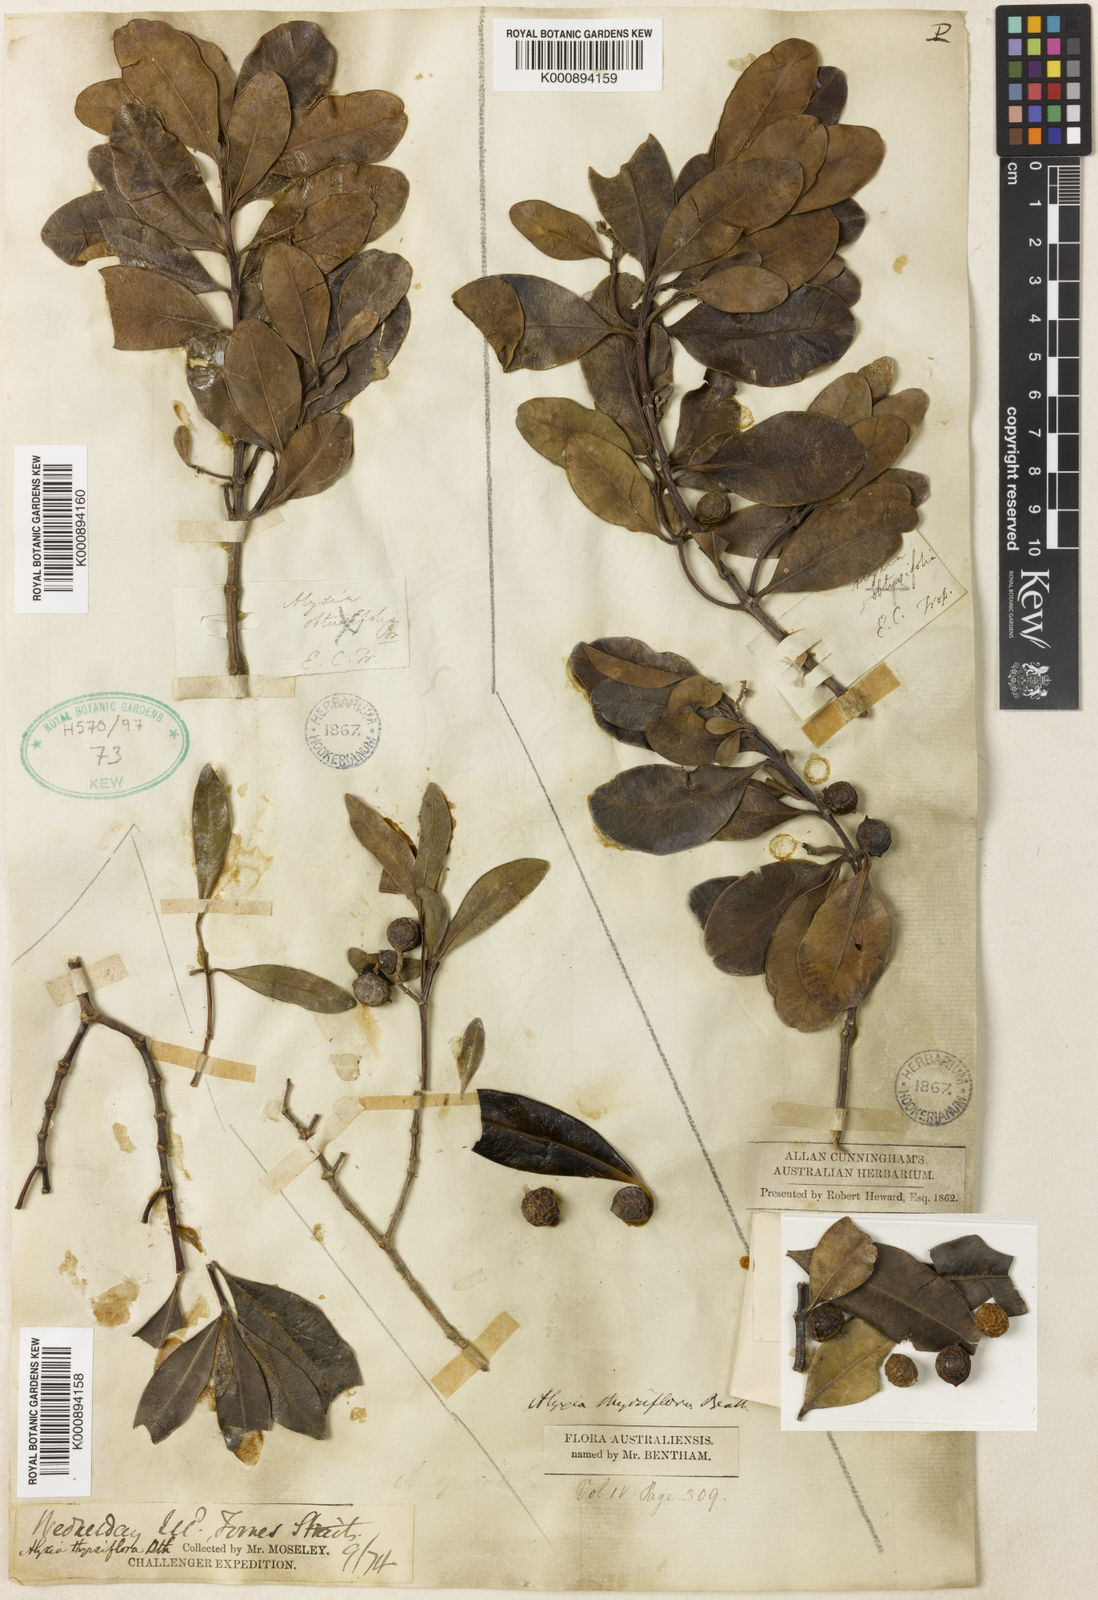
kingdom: Plantae
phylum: Tracheophyta
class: Magnoliopsida
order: Gentianales
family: Apocynaceae
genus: Alyxia
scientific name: Alyxia spicata
